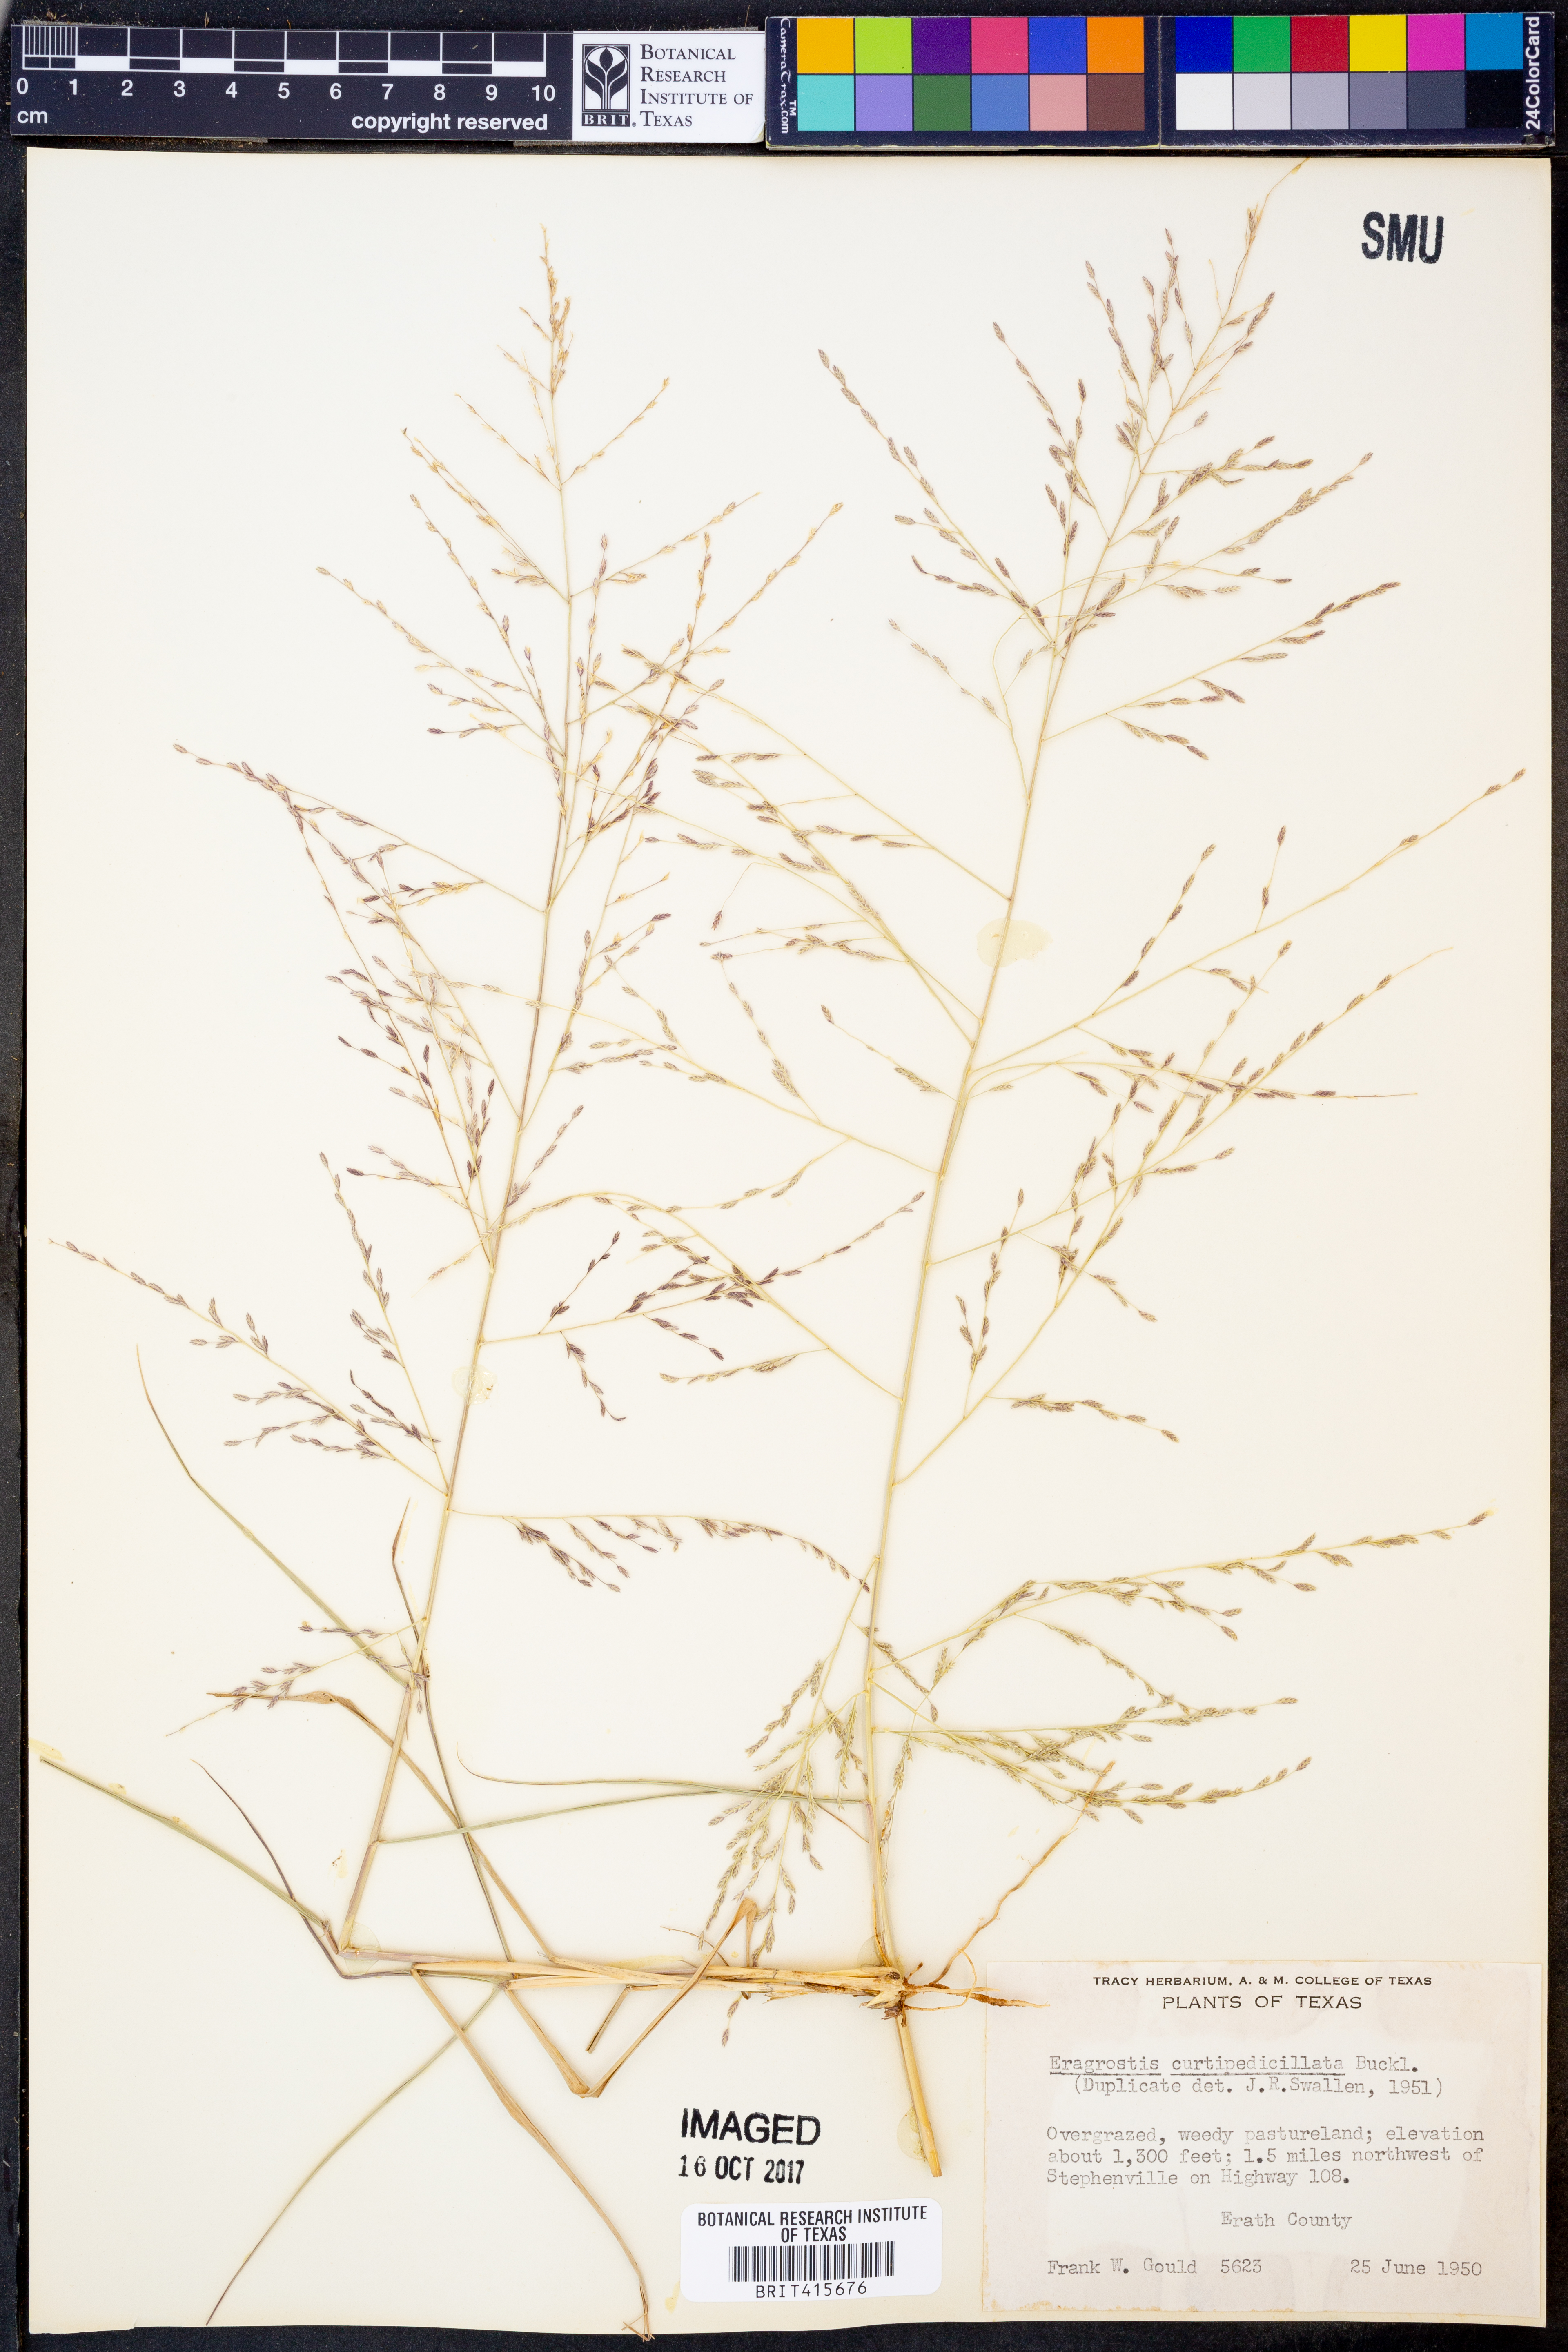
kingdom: Plantae
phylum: Tracheophyta
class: Liliopsida
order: Poales
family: Poaceae
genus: Eragrostis
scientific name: Eragrostis curtipedicellata
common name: Gummy love grass
